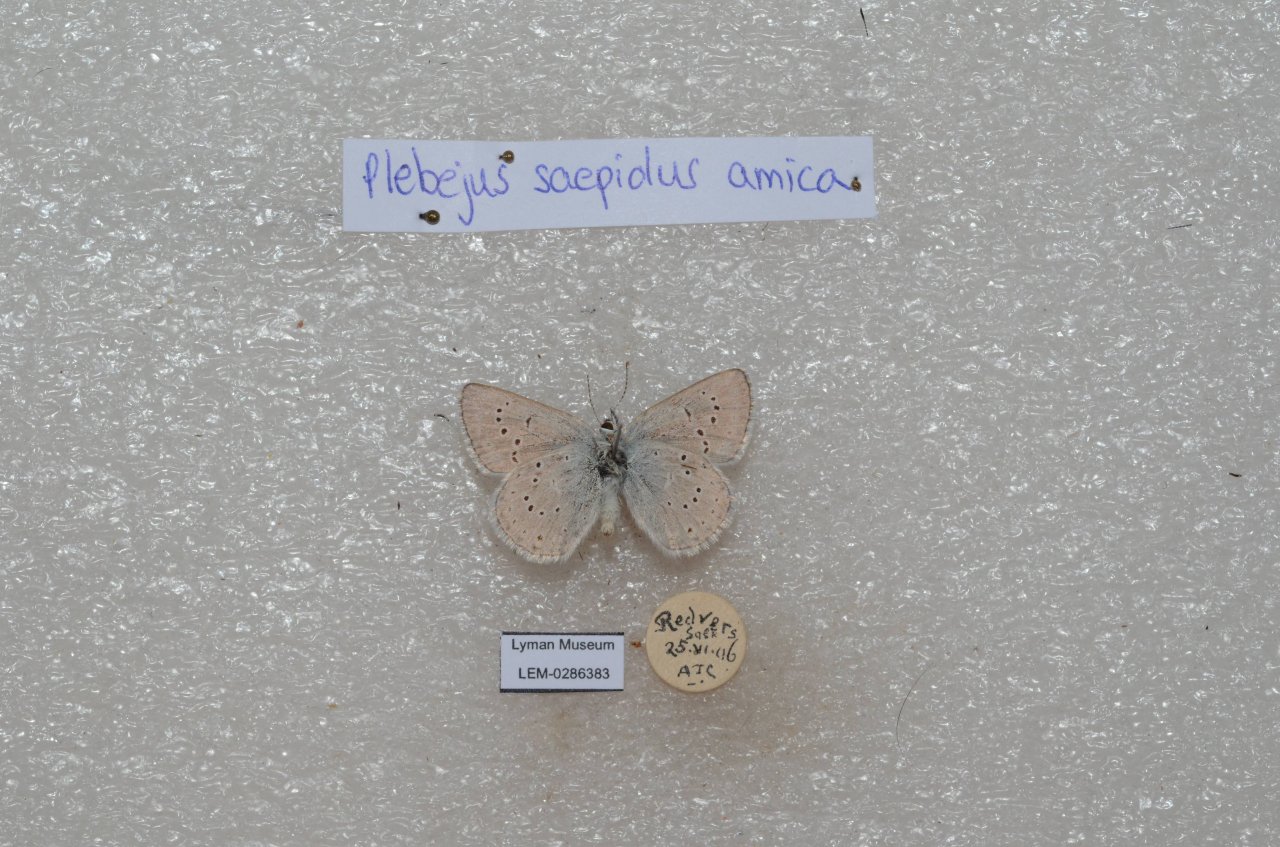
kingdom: Animalia
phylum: Arthropoda
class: Insecta
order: Lepidoptera
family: Lycaenidae
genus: Plebejus
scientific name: Plebejus saepiolus
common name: Greenish Blue
